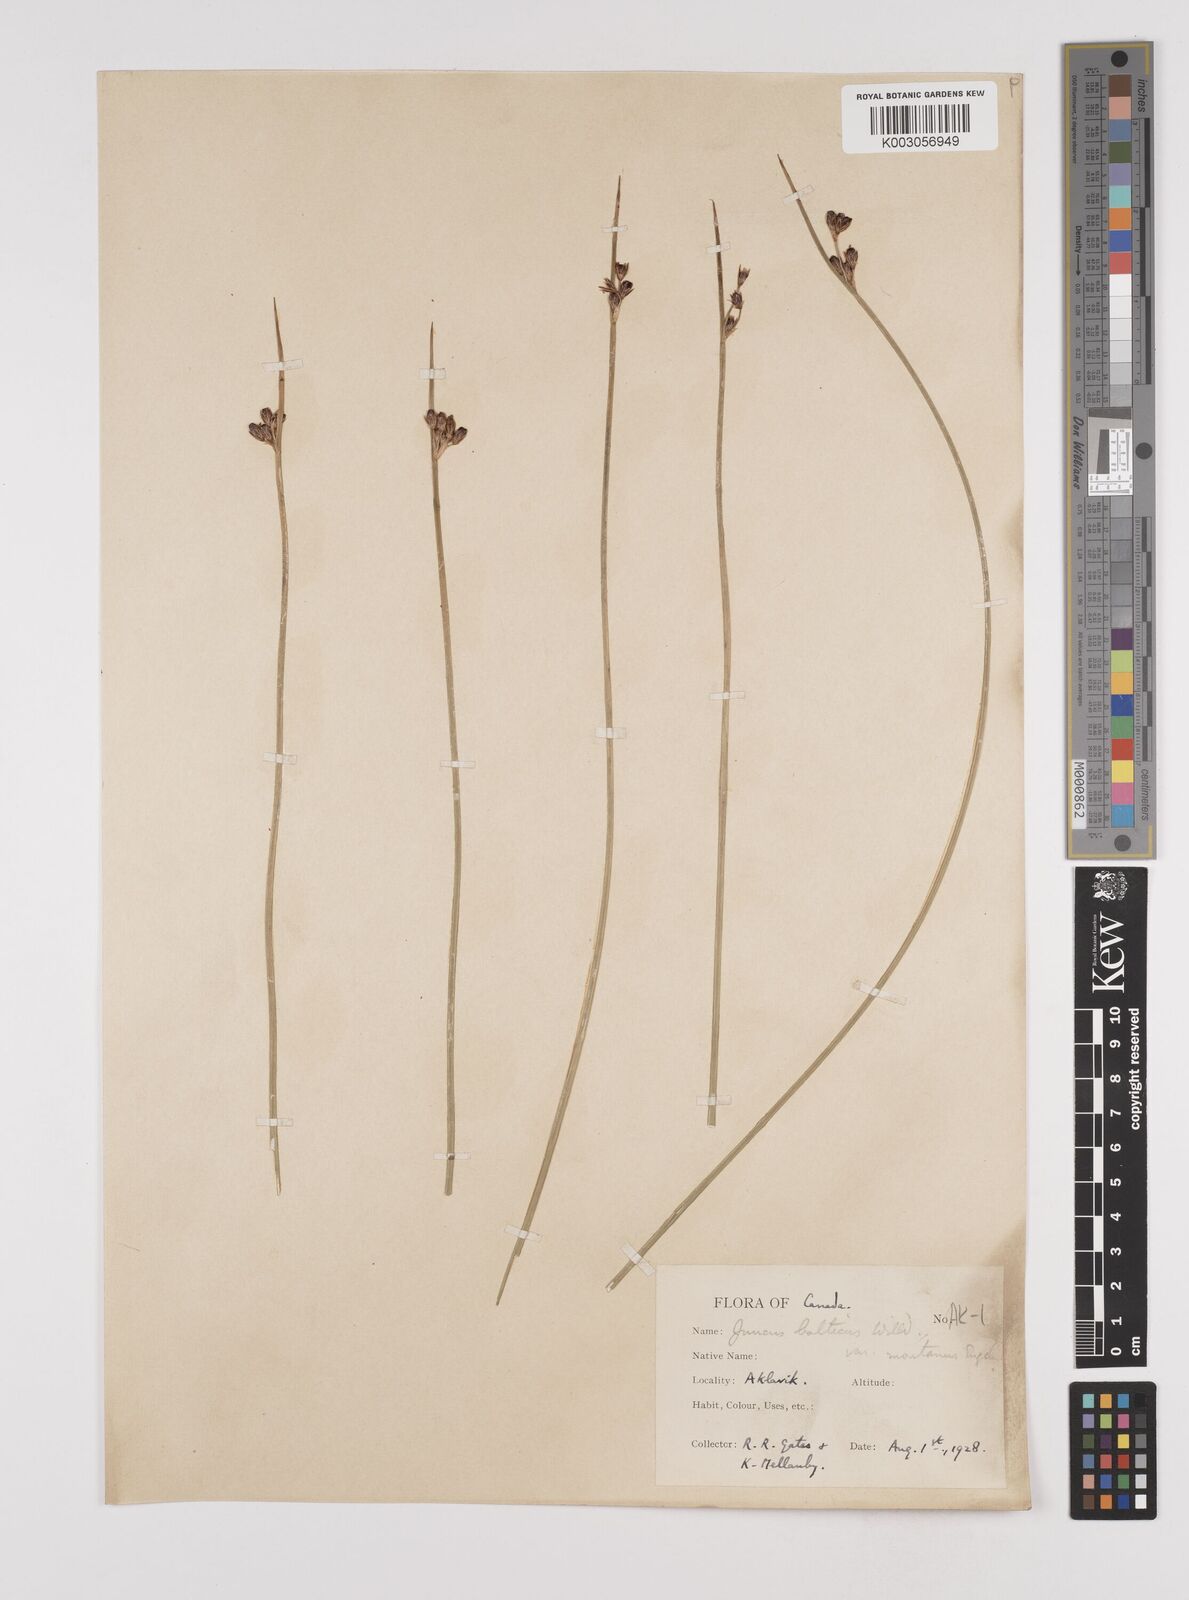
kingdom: Plantae
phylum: Tracheophyta
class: Liliopsida
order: Poales
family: Juncaceae
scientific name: Juncaceae
